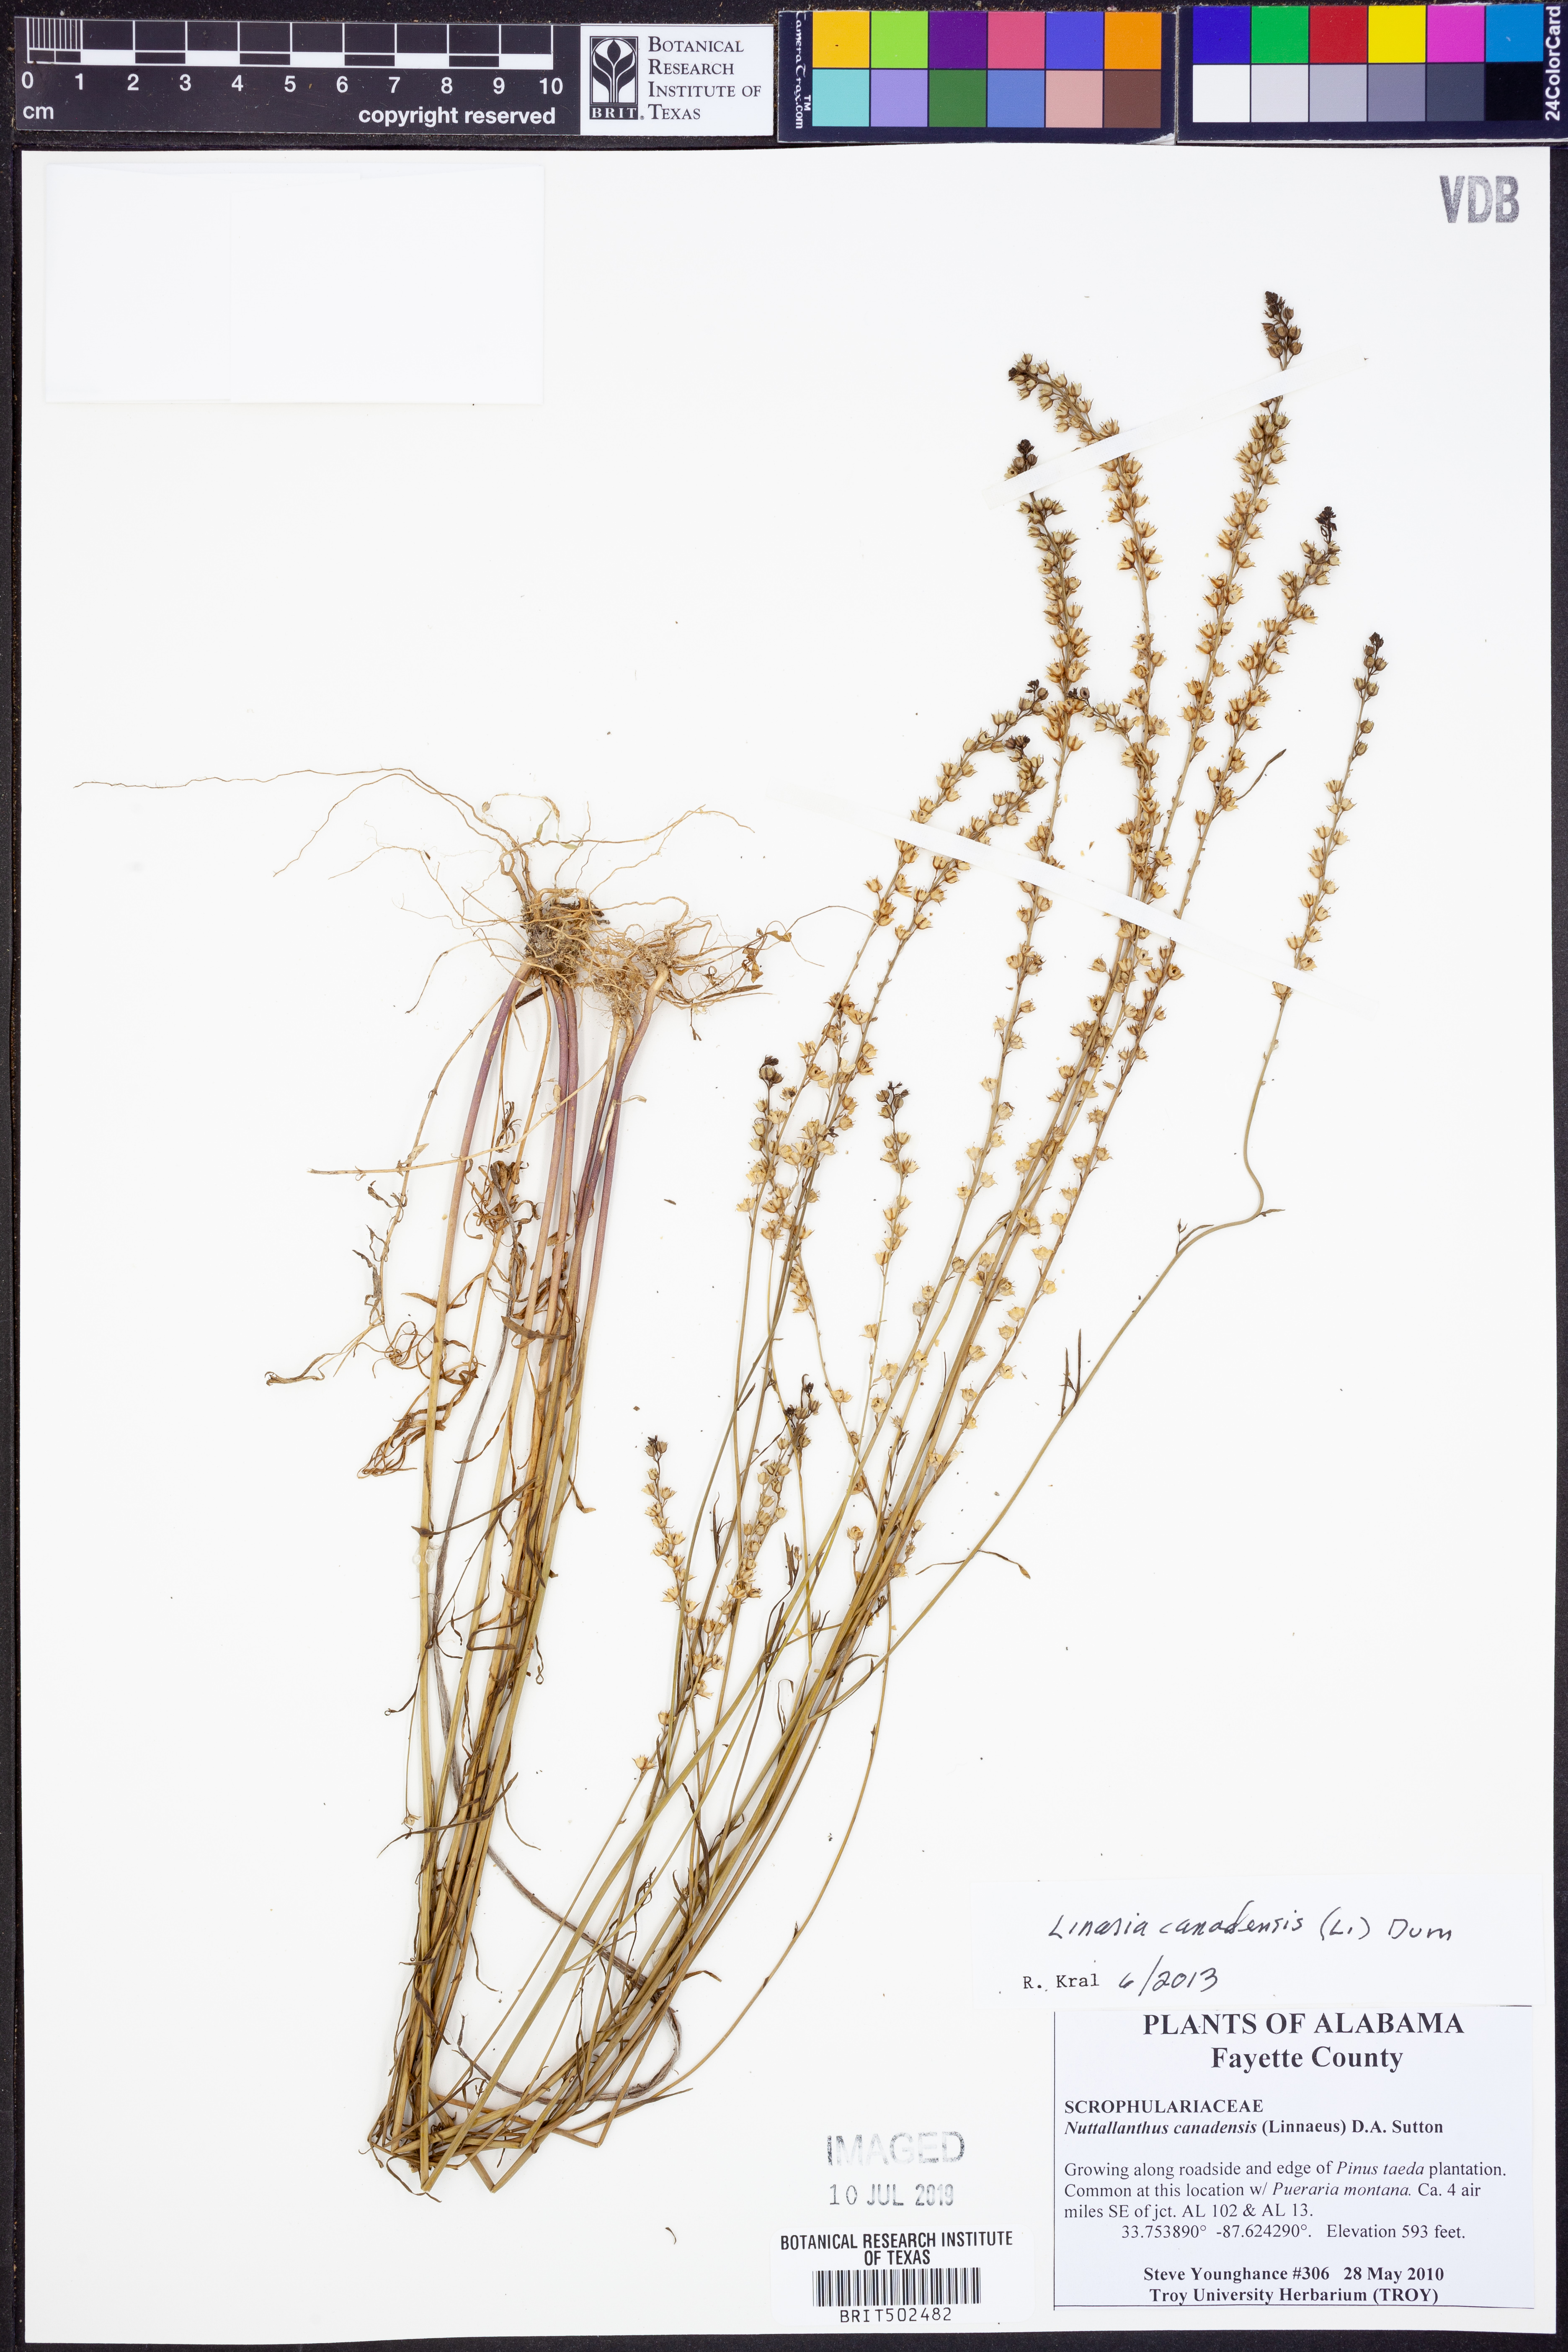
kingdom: Plantae
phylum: Tracheophyta
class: Magnoliopsida
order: Lamiales
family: Plantaginaceae
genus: Nuttallanthus
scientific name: Nuttallanthus canadensis
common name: Blue toadflax
